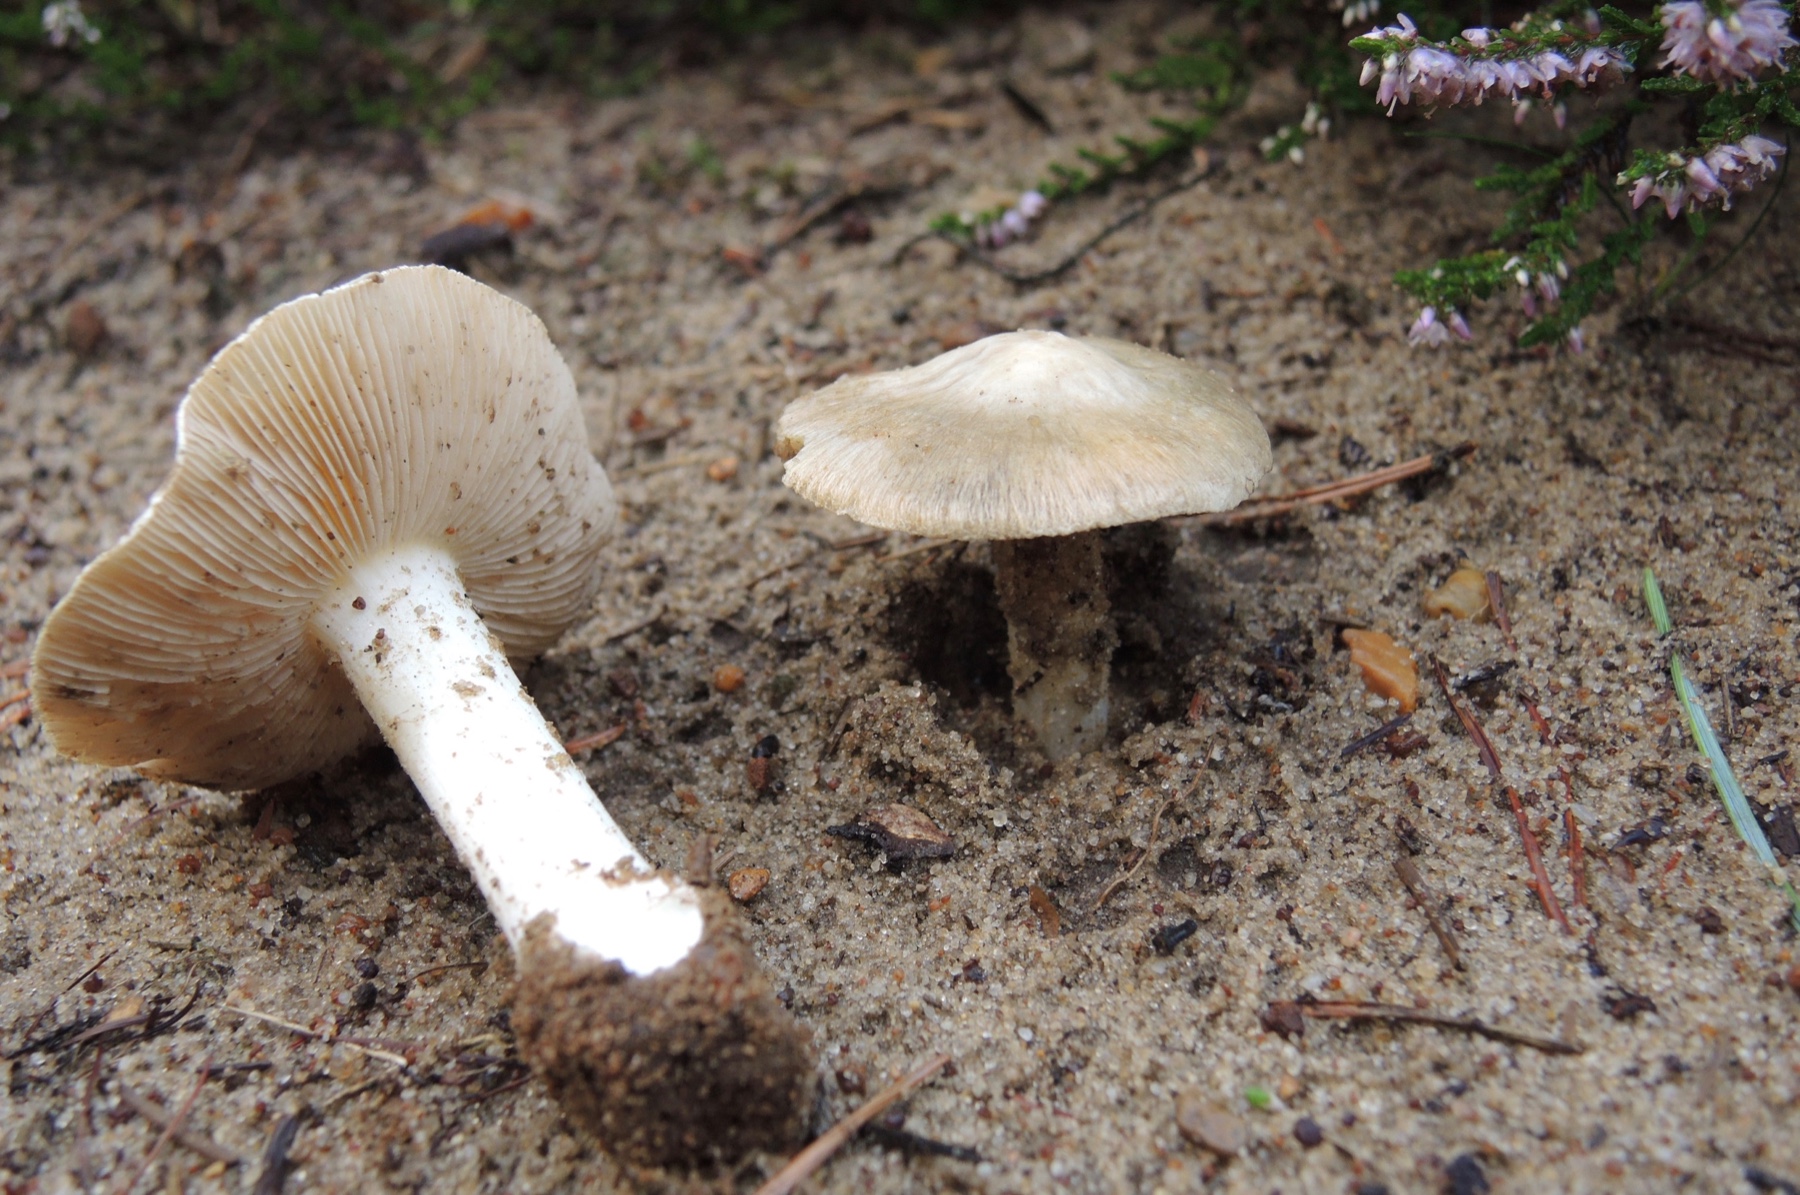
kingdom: Fungi
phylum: Basidiomycota
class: Agaricomycetes
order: Agaricales
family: Inocybaceae
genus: Inocybe
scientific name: Inocybe sambucina
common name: hyldehvid trævlhat
